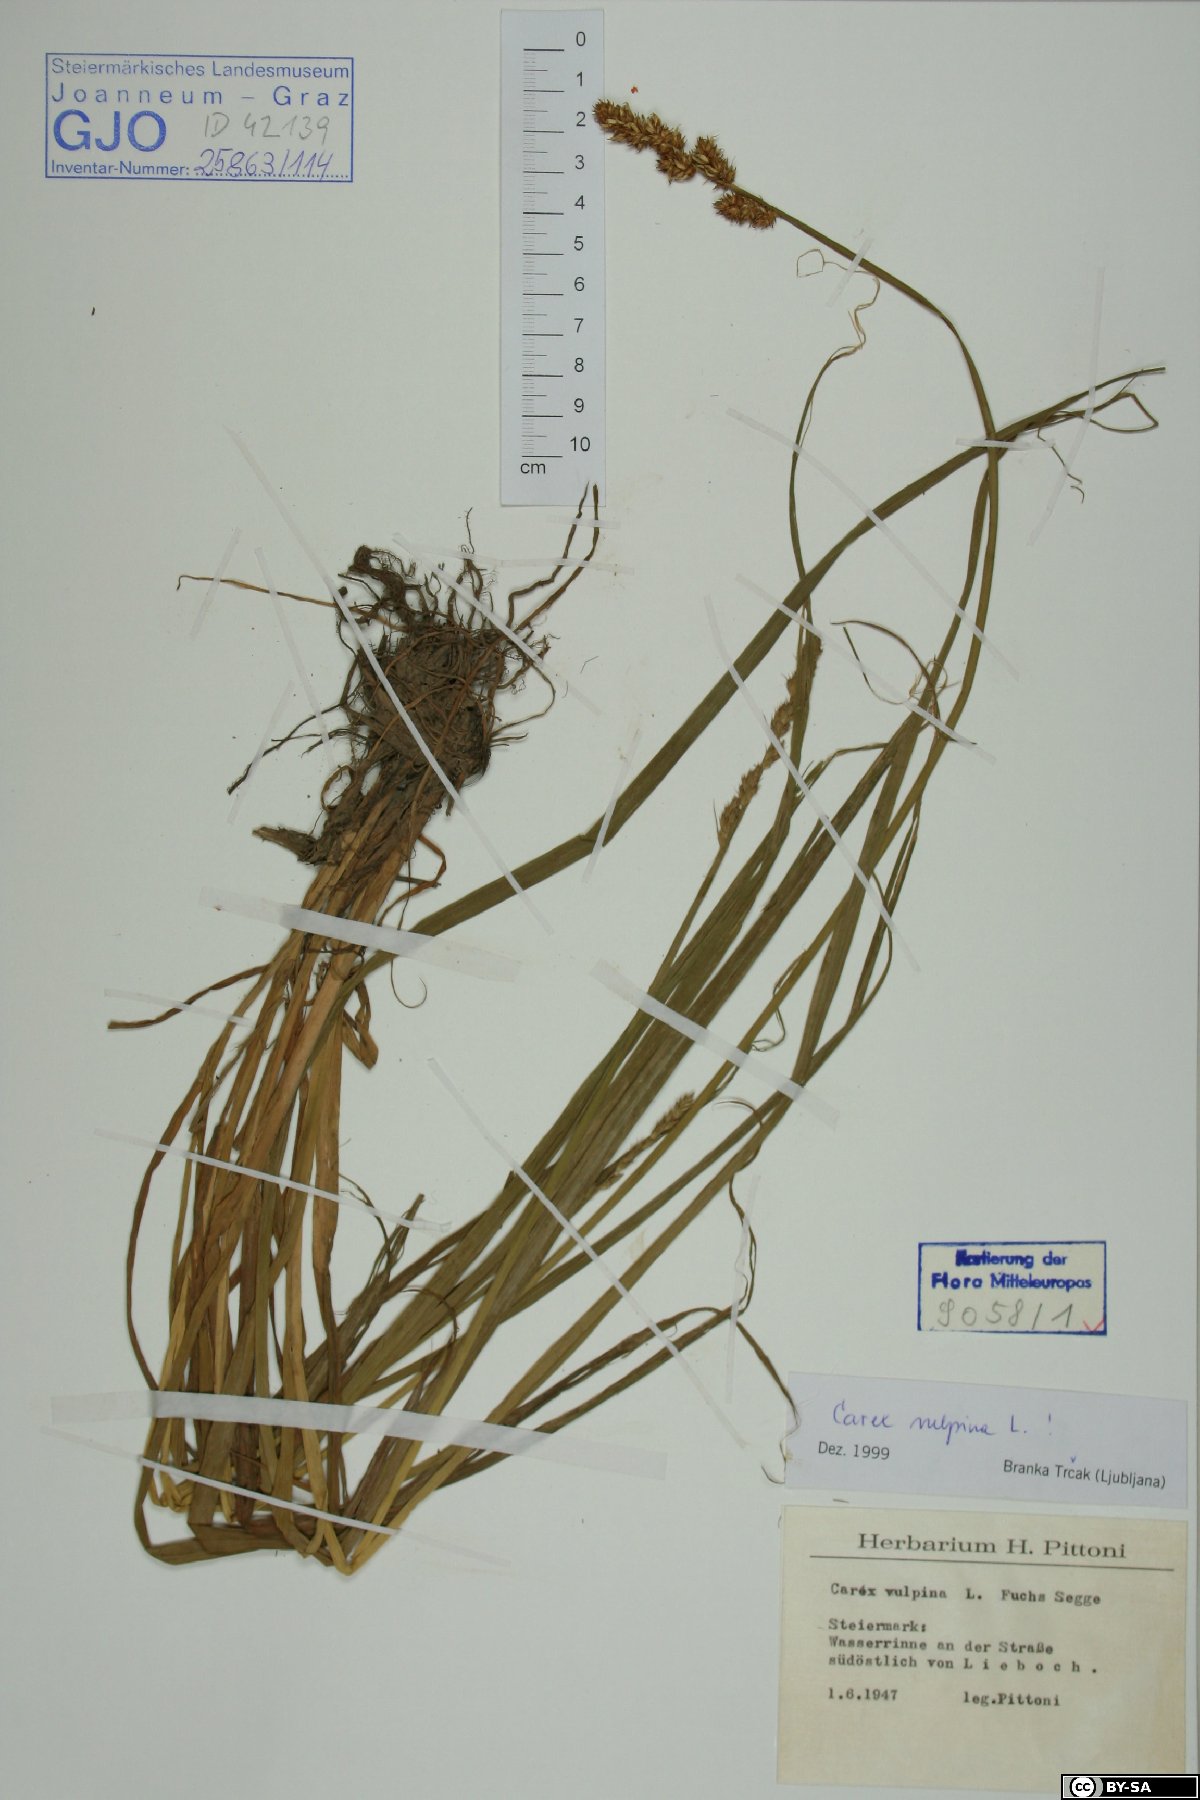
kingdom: Plantae
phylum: Tracheophyta
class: Liliopsida
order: Poales
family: Cyperaceae
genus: Carex
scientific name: Carex vulpina
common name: True fox-sedge
